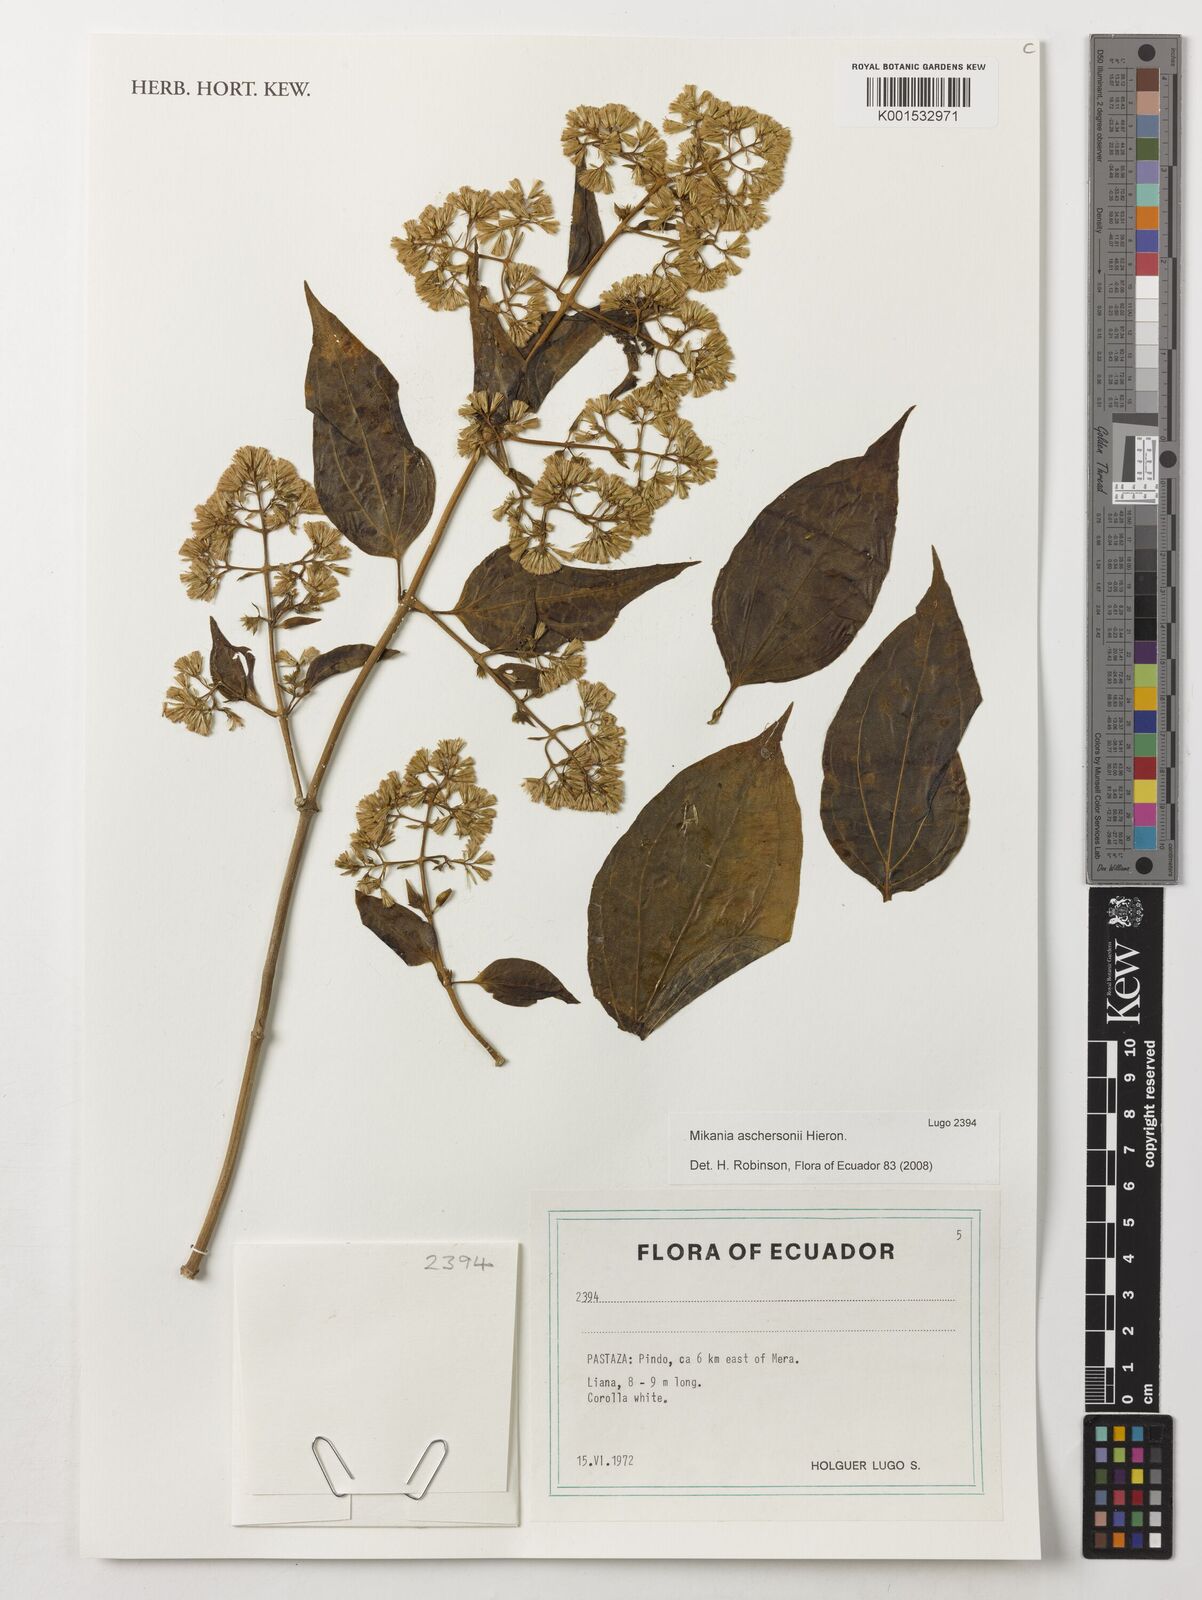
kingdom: Plantae
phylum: Tracheophyta
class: Magnoliopsida
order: Asterales
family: Asteraceae
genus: Mikania
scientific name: Mikania aschersonii
